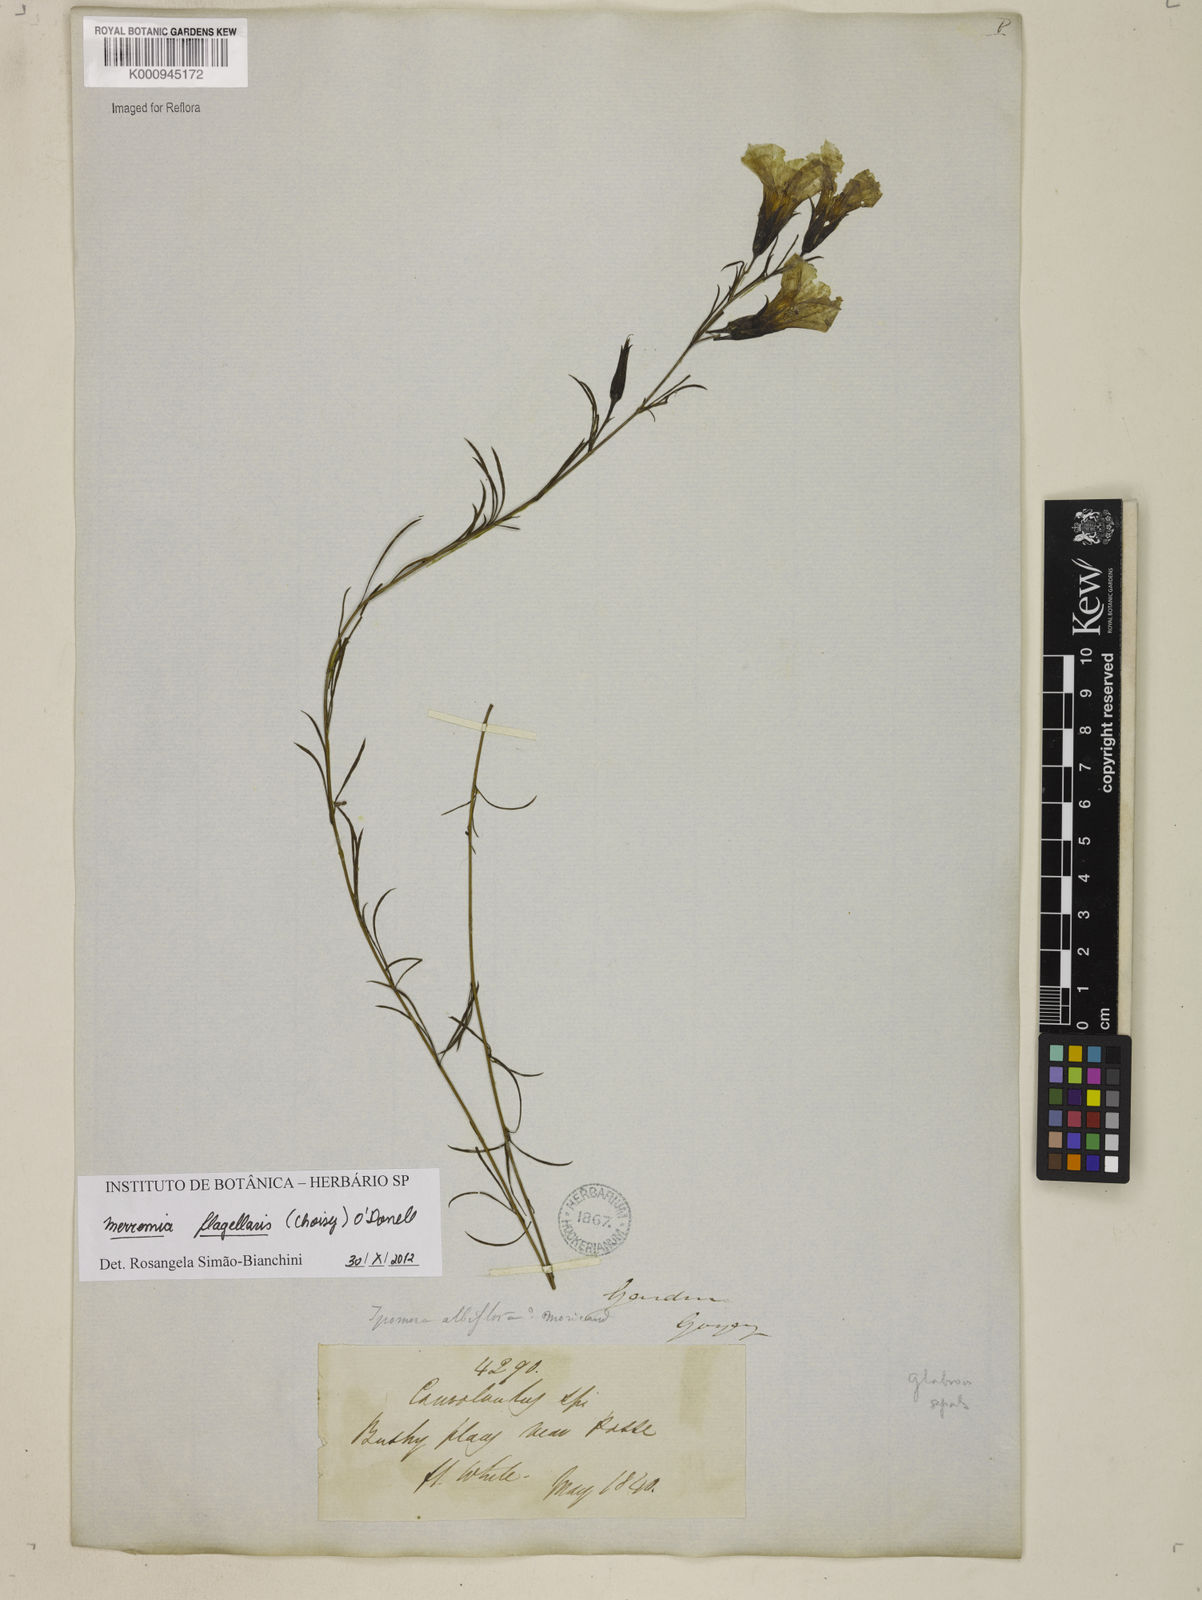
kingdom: Plantae
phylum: Tracheophyta
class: Magnoliopsida
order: Solanales
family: Convolvulaceae
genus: Distimake
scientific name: Distimake digitatus
